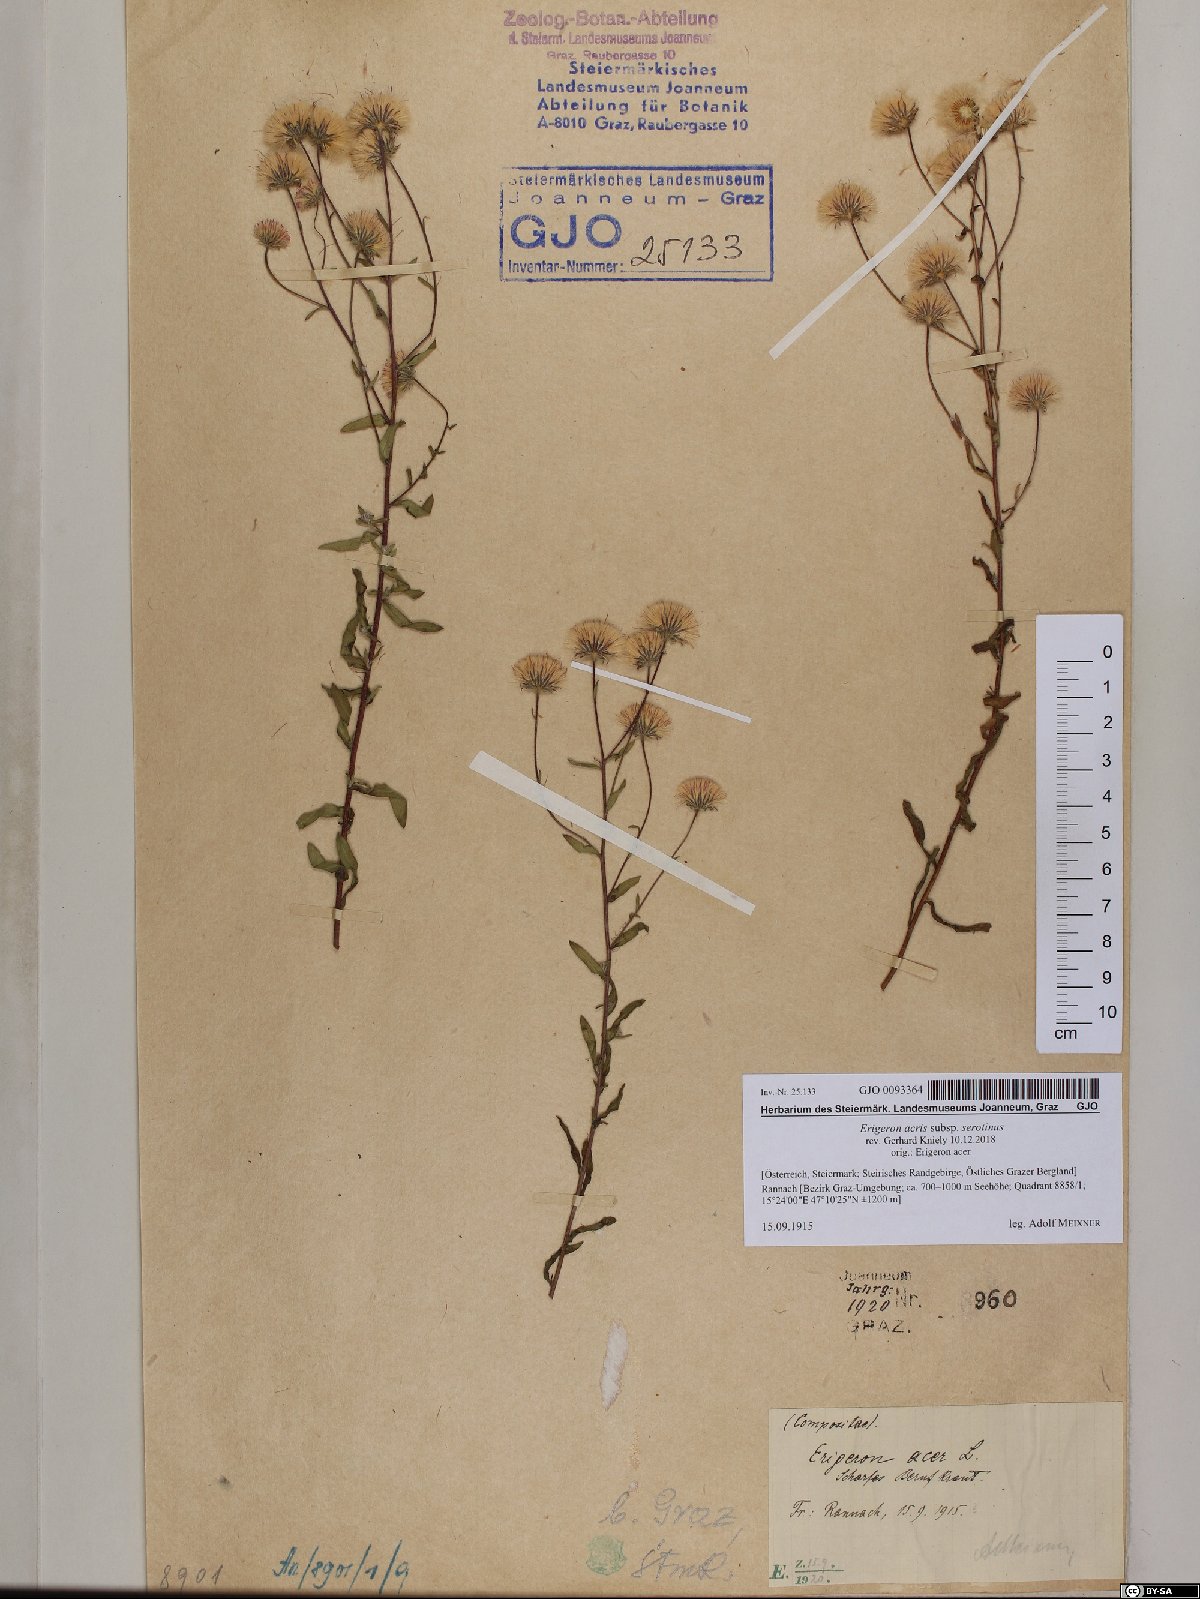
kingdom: Plantae
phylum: Tracheophyta
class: Magnoliopsida
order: Asterales
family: Asteraceae
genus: Erigeron
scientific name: Erigeron muralis
